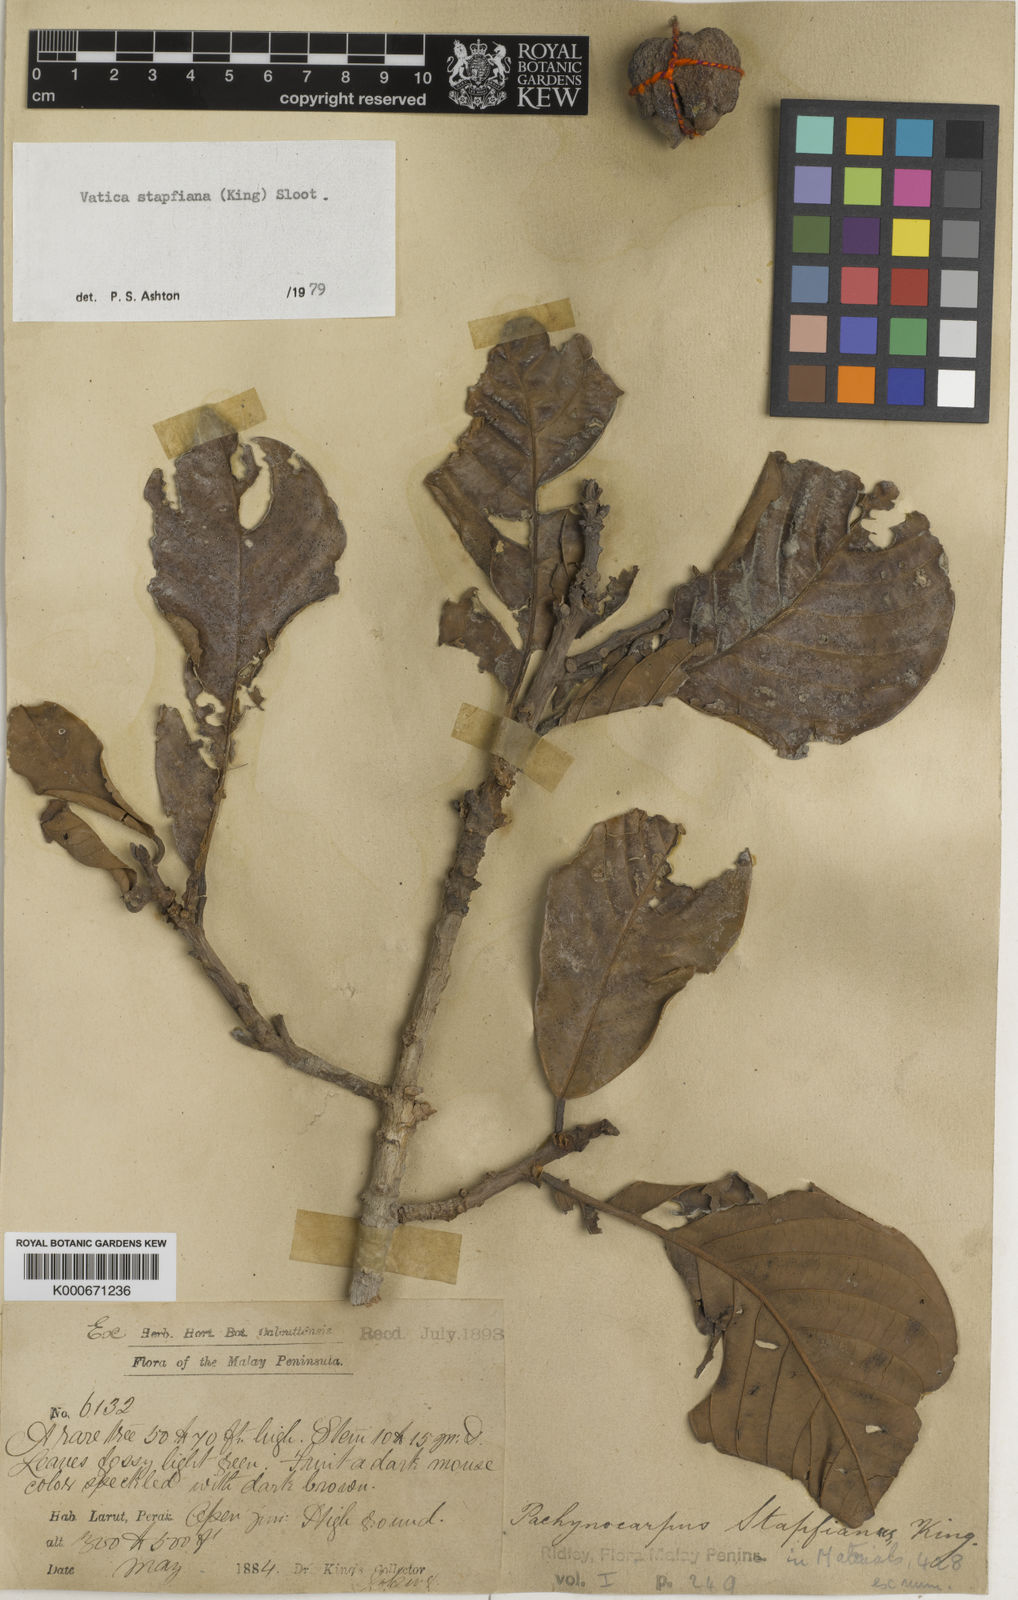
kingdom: Plantae
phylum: Tracheophyta
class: Magnoliopsida
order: Malvales
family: Dipterocarpaceae
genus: Vatica
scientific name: Vatica stapfiana
